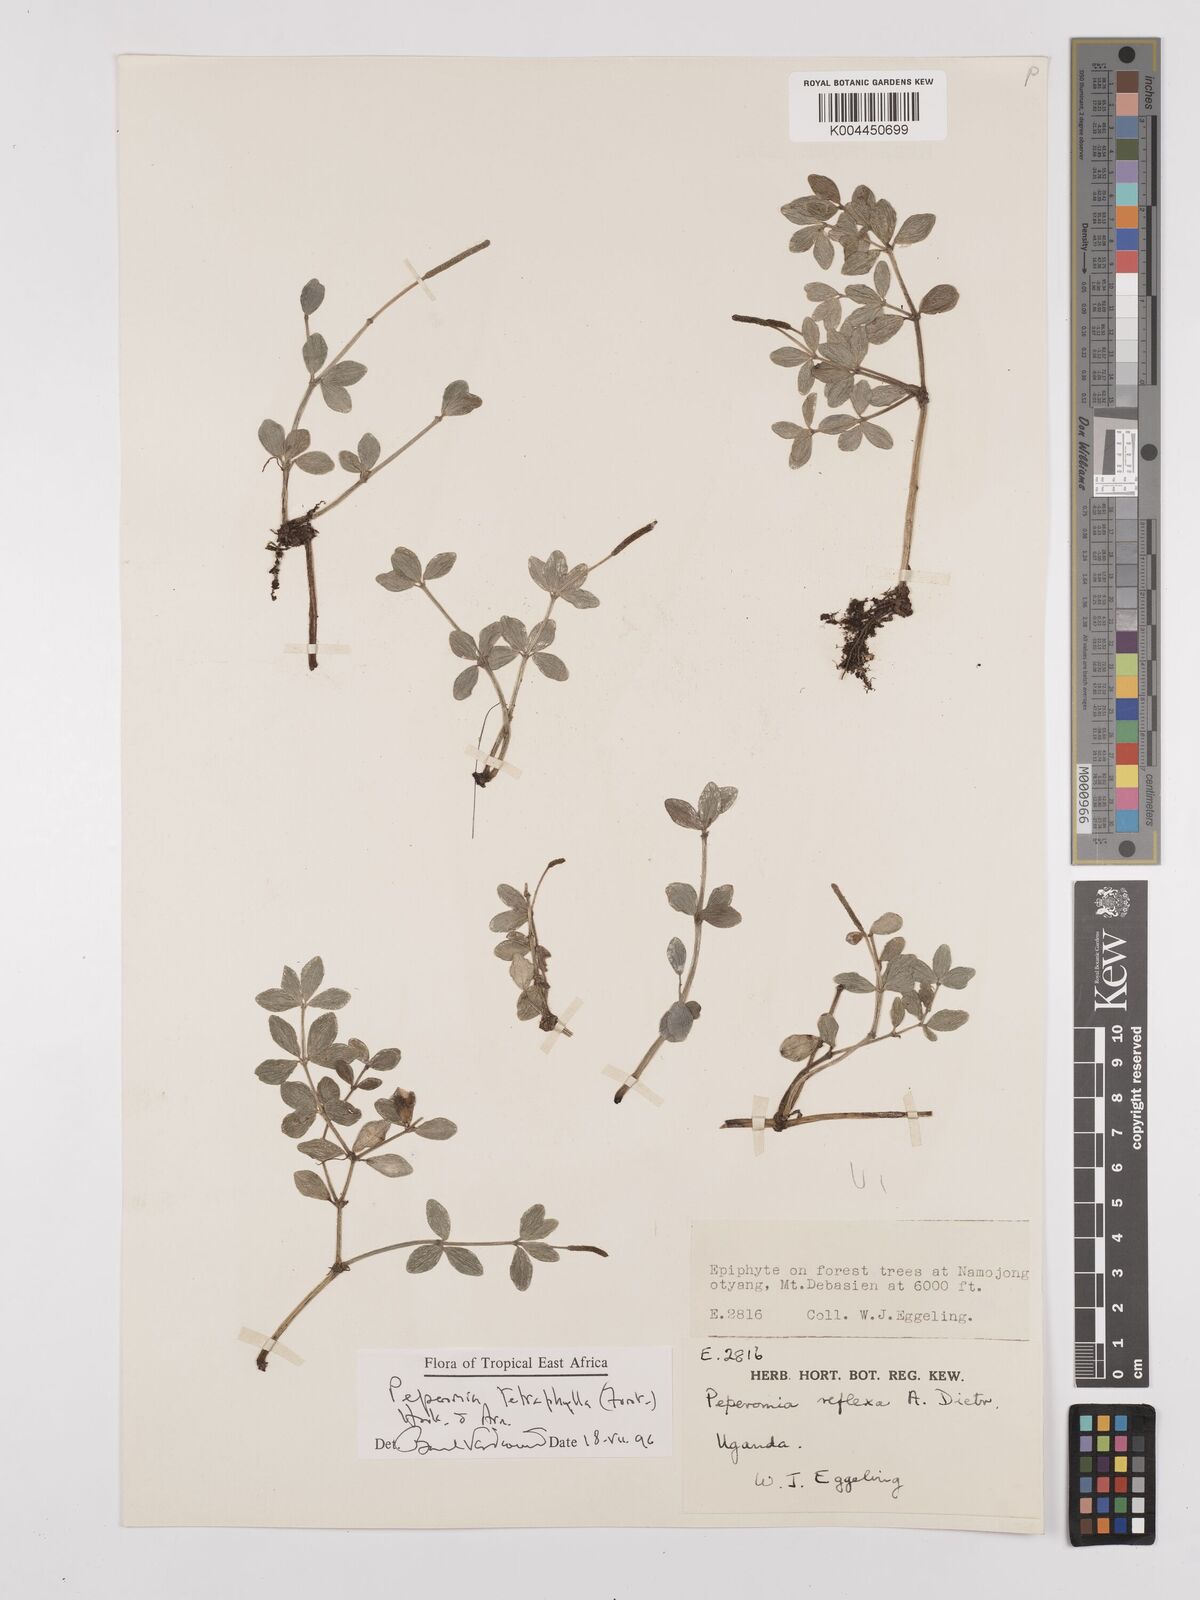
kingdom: Plantae
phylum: Tracheophyta
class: Magnoliopsida
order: Piperales
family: Piperaceae
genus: Peperomia
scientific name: Peperomia tetraphylla
